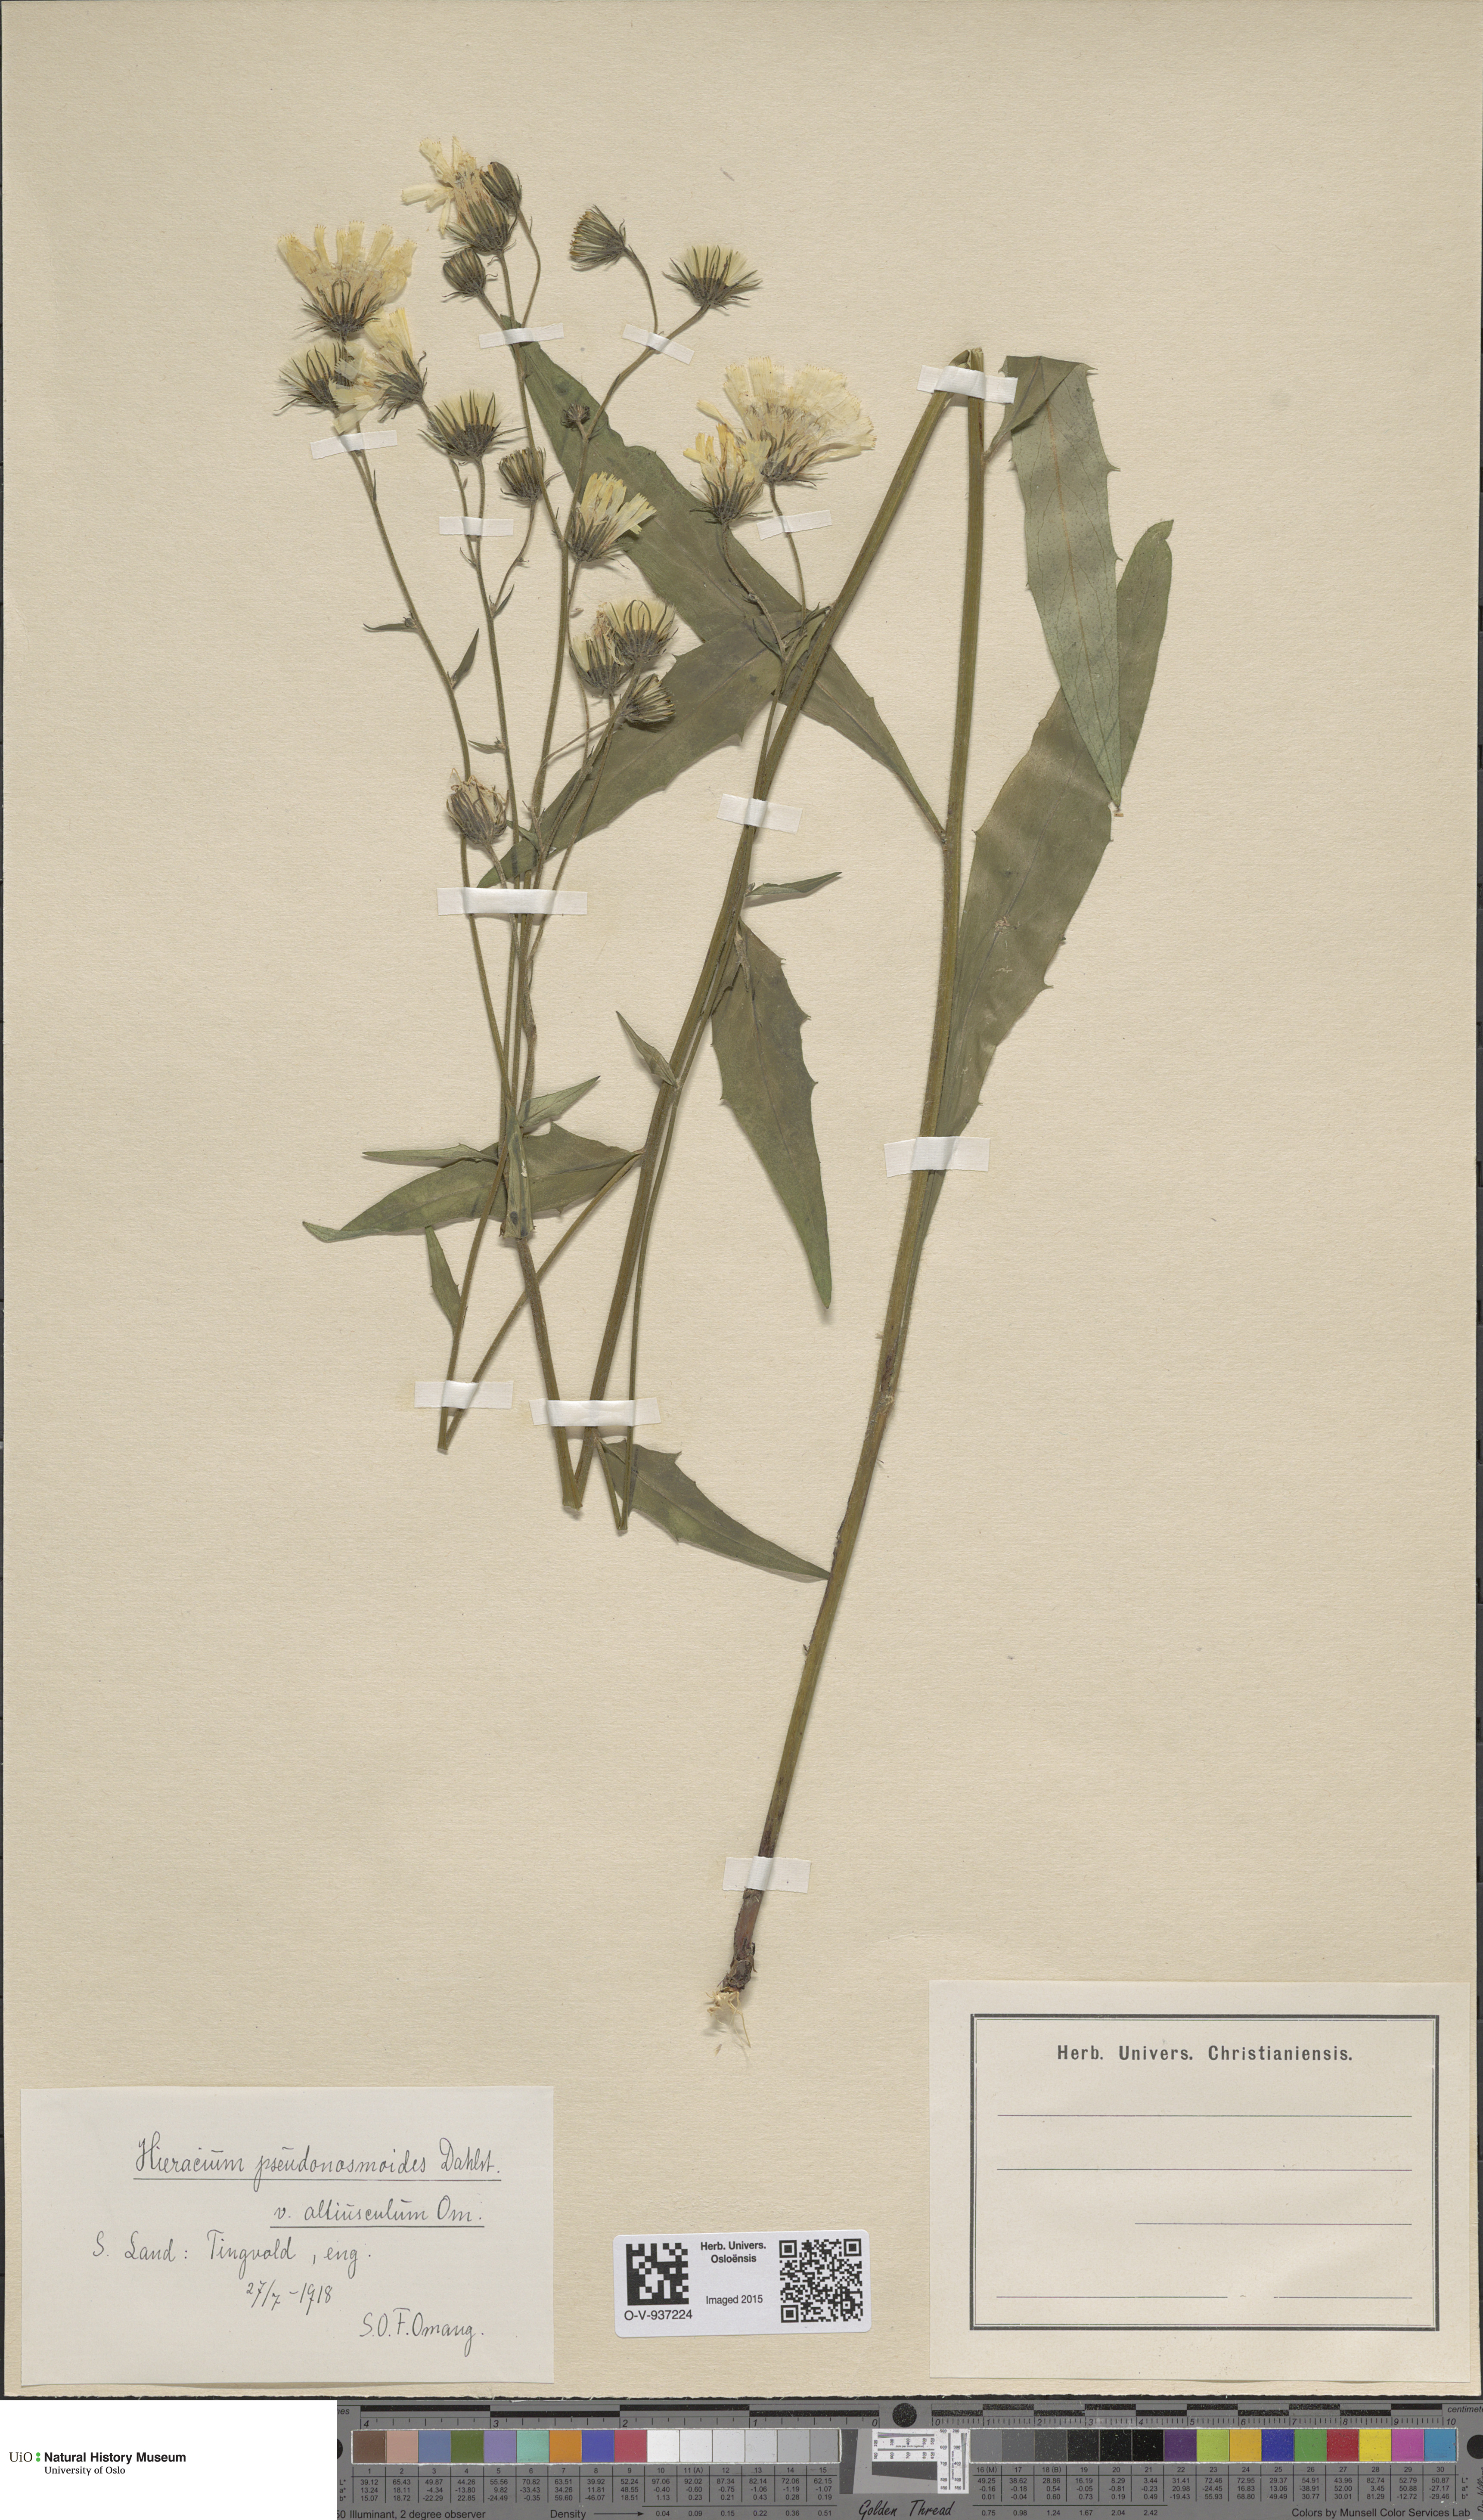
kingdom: Plantae
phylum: Tracheophyta
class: Magnoliopsida
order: Asterales
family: Asteraceae
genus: Hieracium
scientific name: Hieracium saxifragum
